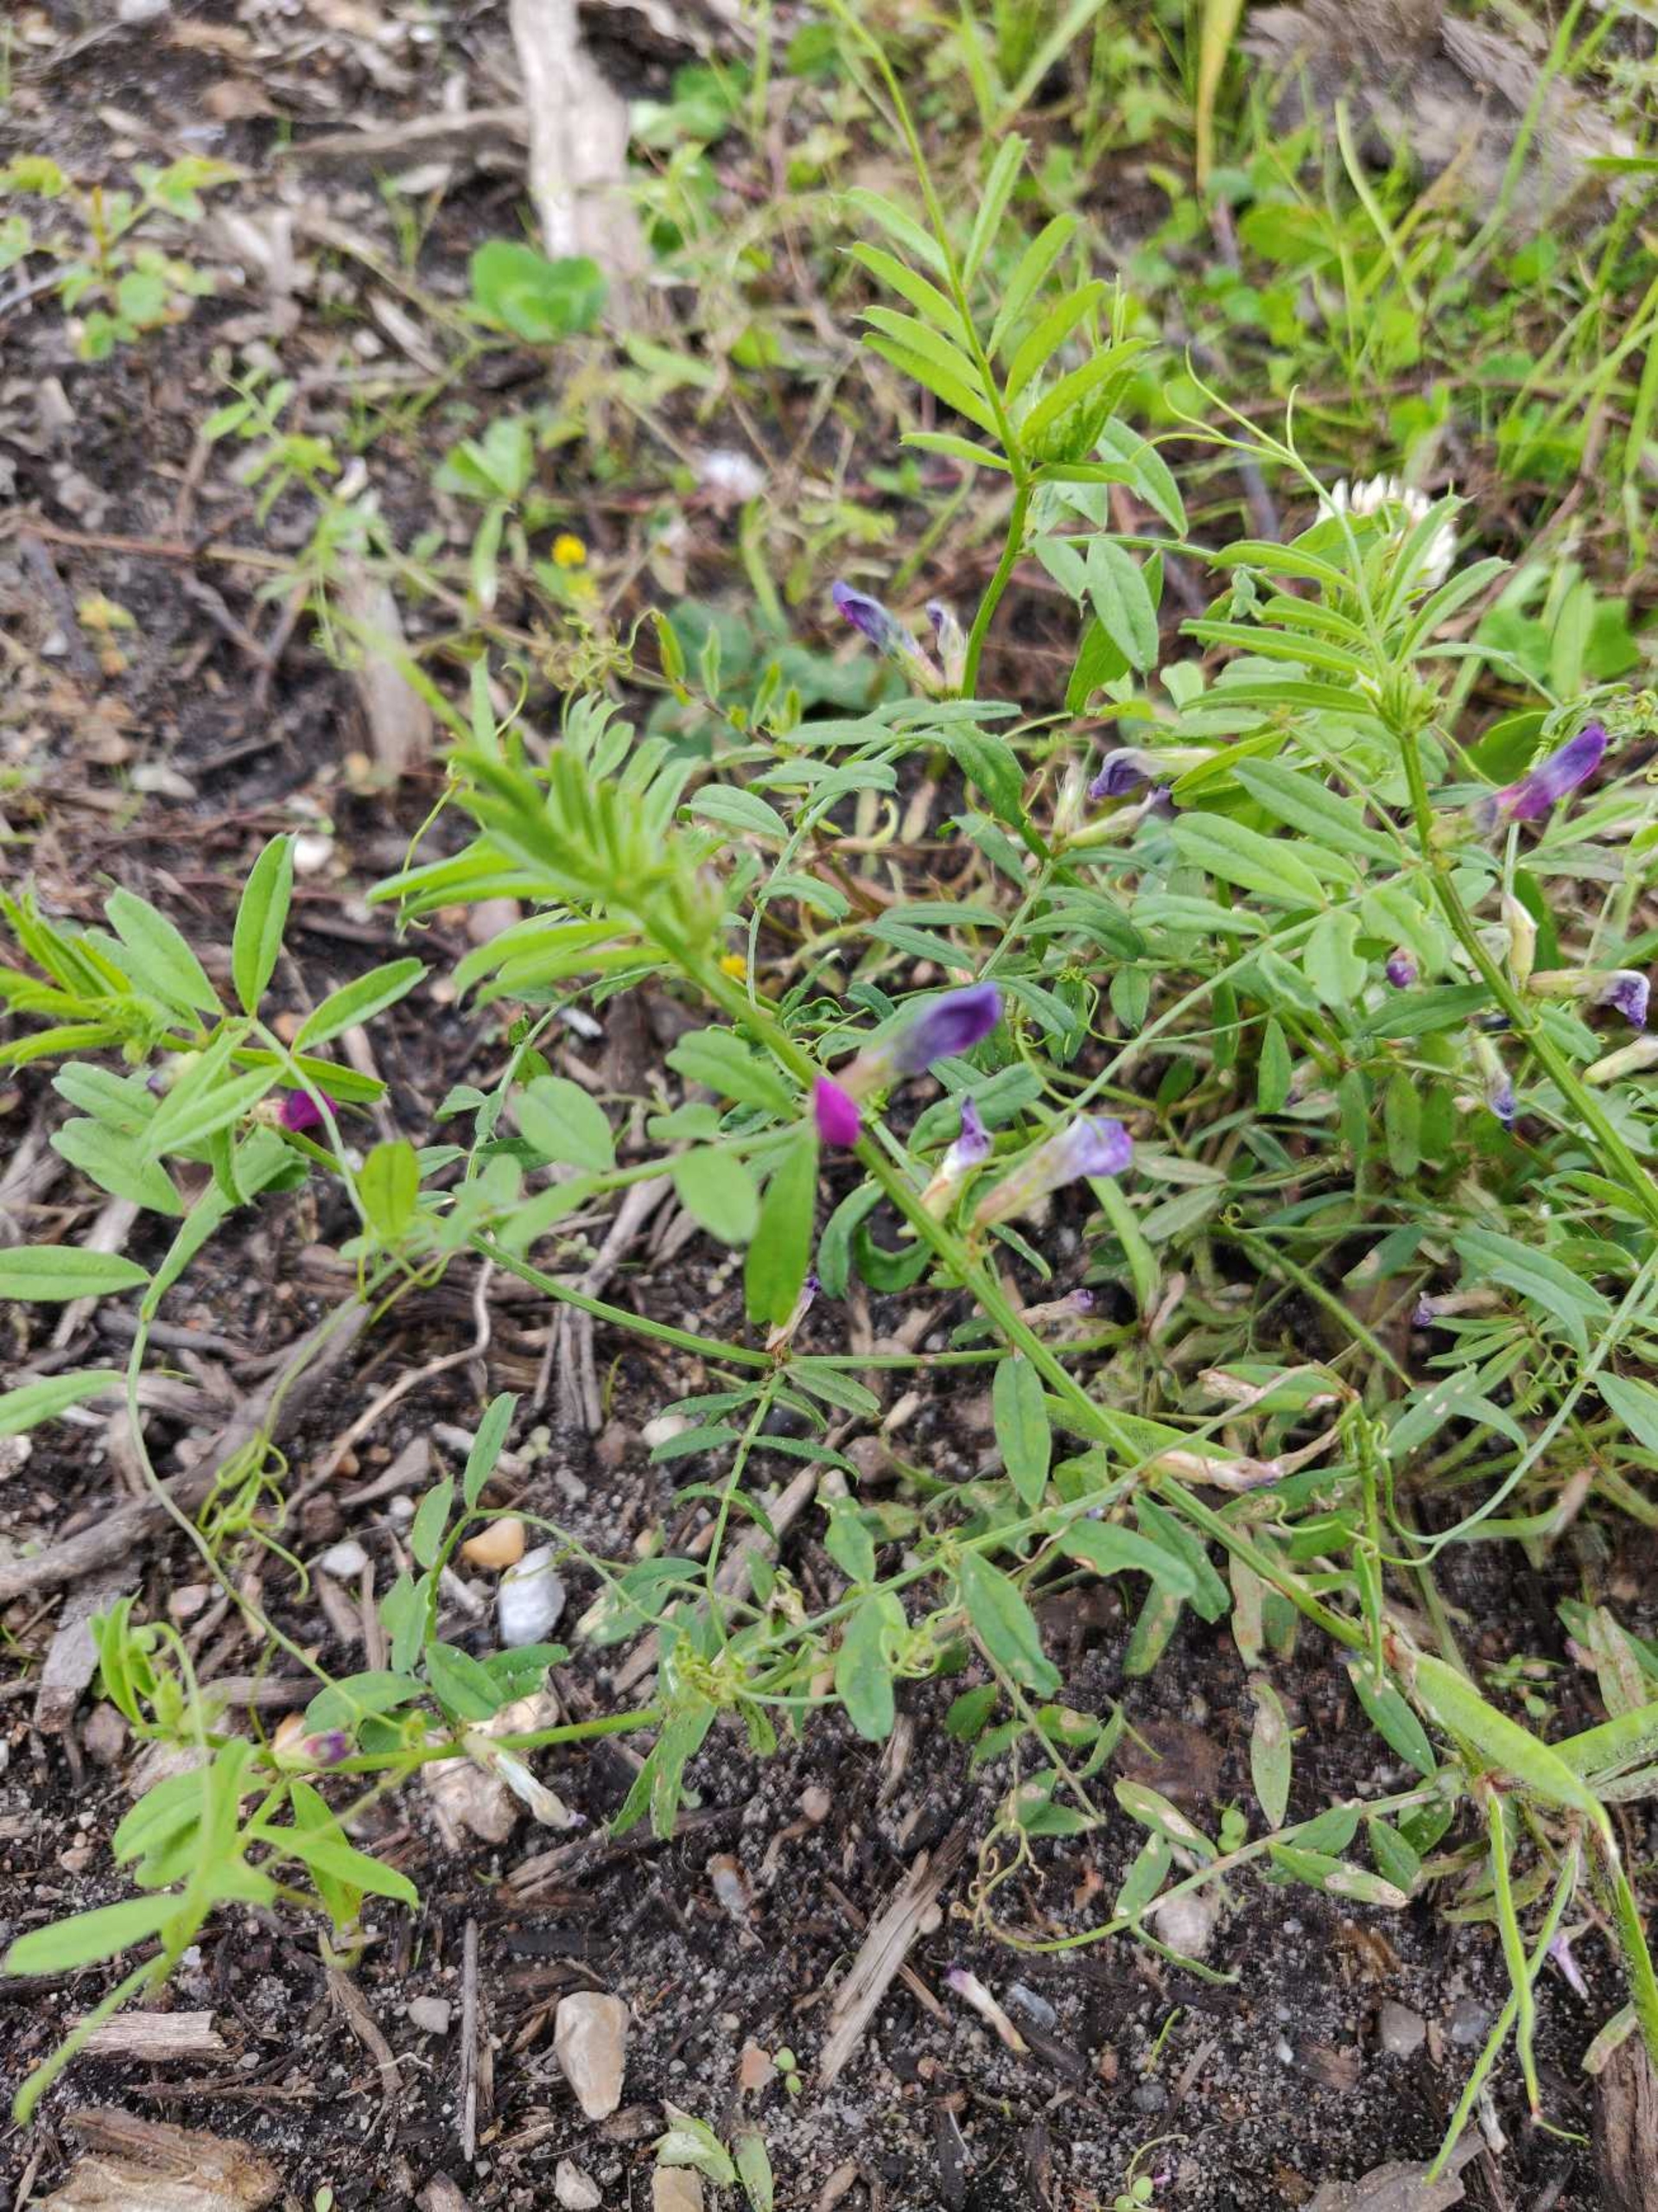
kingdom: Plantae
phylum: Tracheophyta
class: Magnoliopsida
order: Fabales
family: Fabaceae
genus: Vicia
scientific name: Vicia sativa
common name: Foder-vikke
